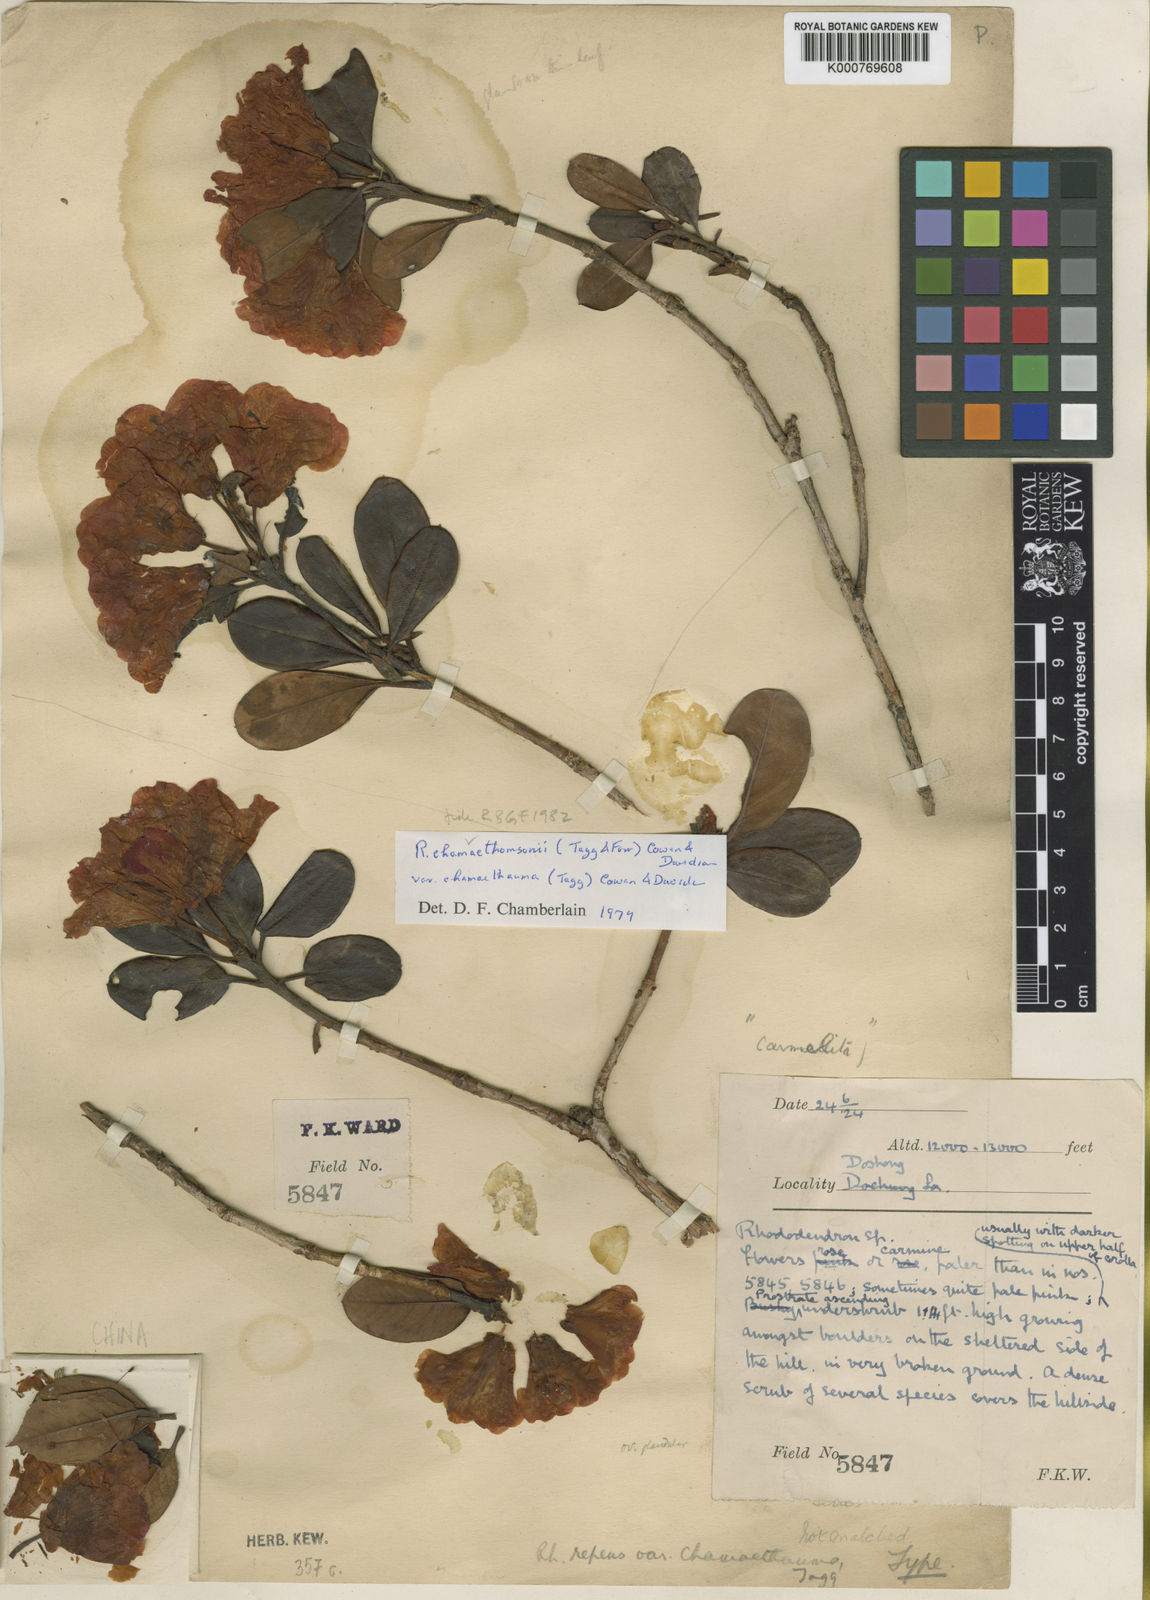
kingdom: Plantae
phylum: Tracheophyta
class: Magnoliopsida
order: Ericales
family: Ericaceae
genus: Rhododendron
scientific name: Rhododendron chamaethomsonii
